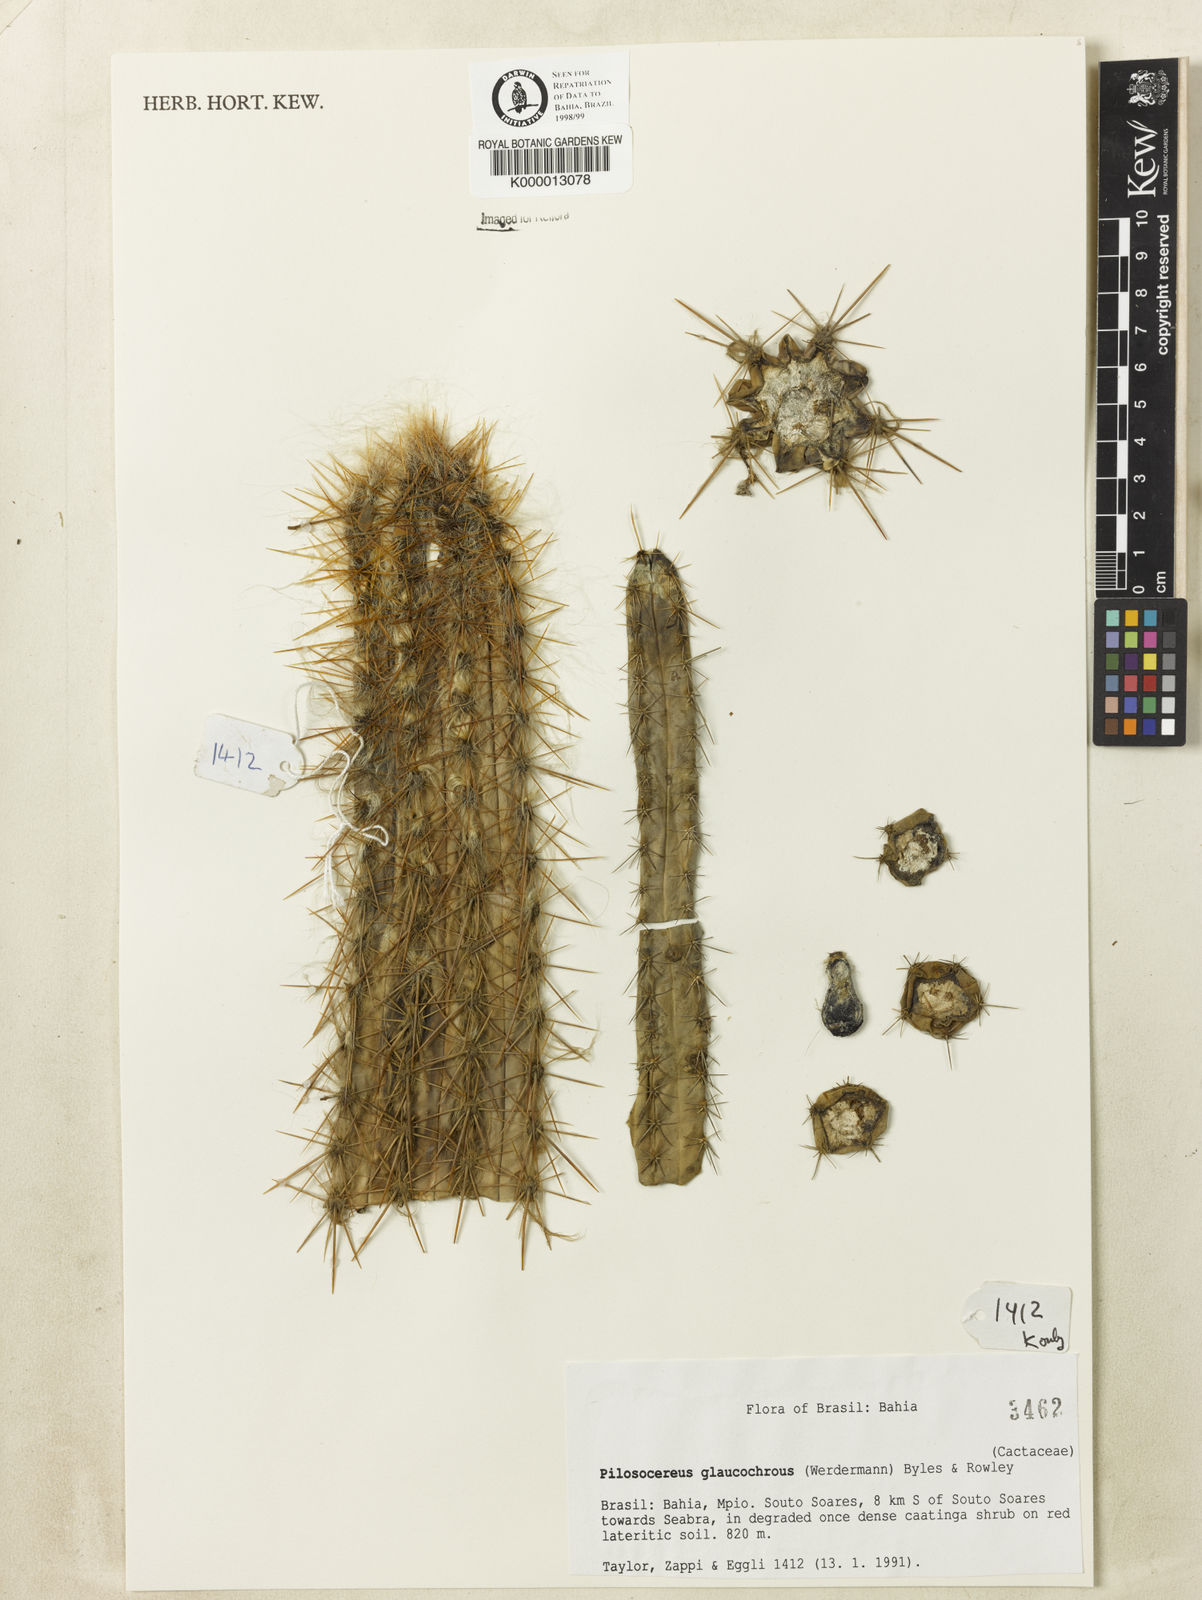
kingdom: Plantae
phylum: Tracheophyta
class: Magnoliopsida
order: Caryophyllales
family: Cactaceae
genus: Pilosocereus
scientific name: Pilosocereus glaucochrous
